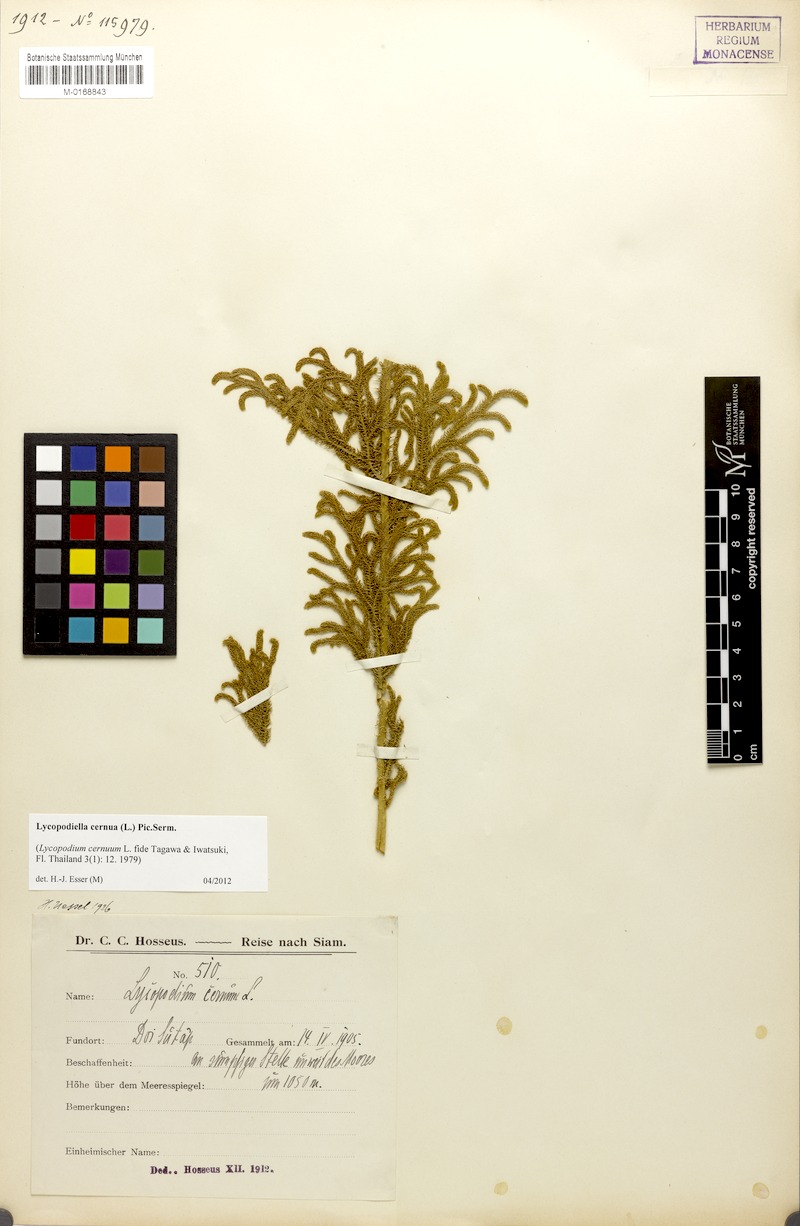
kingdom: Plantae
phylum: Tracheophyta
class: Lycopodiopsida
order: Lycopodiales
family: Lycopodiaceae
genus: Palhinhaea
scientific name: Palhinhaea cernua
